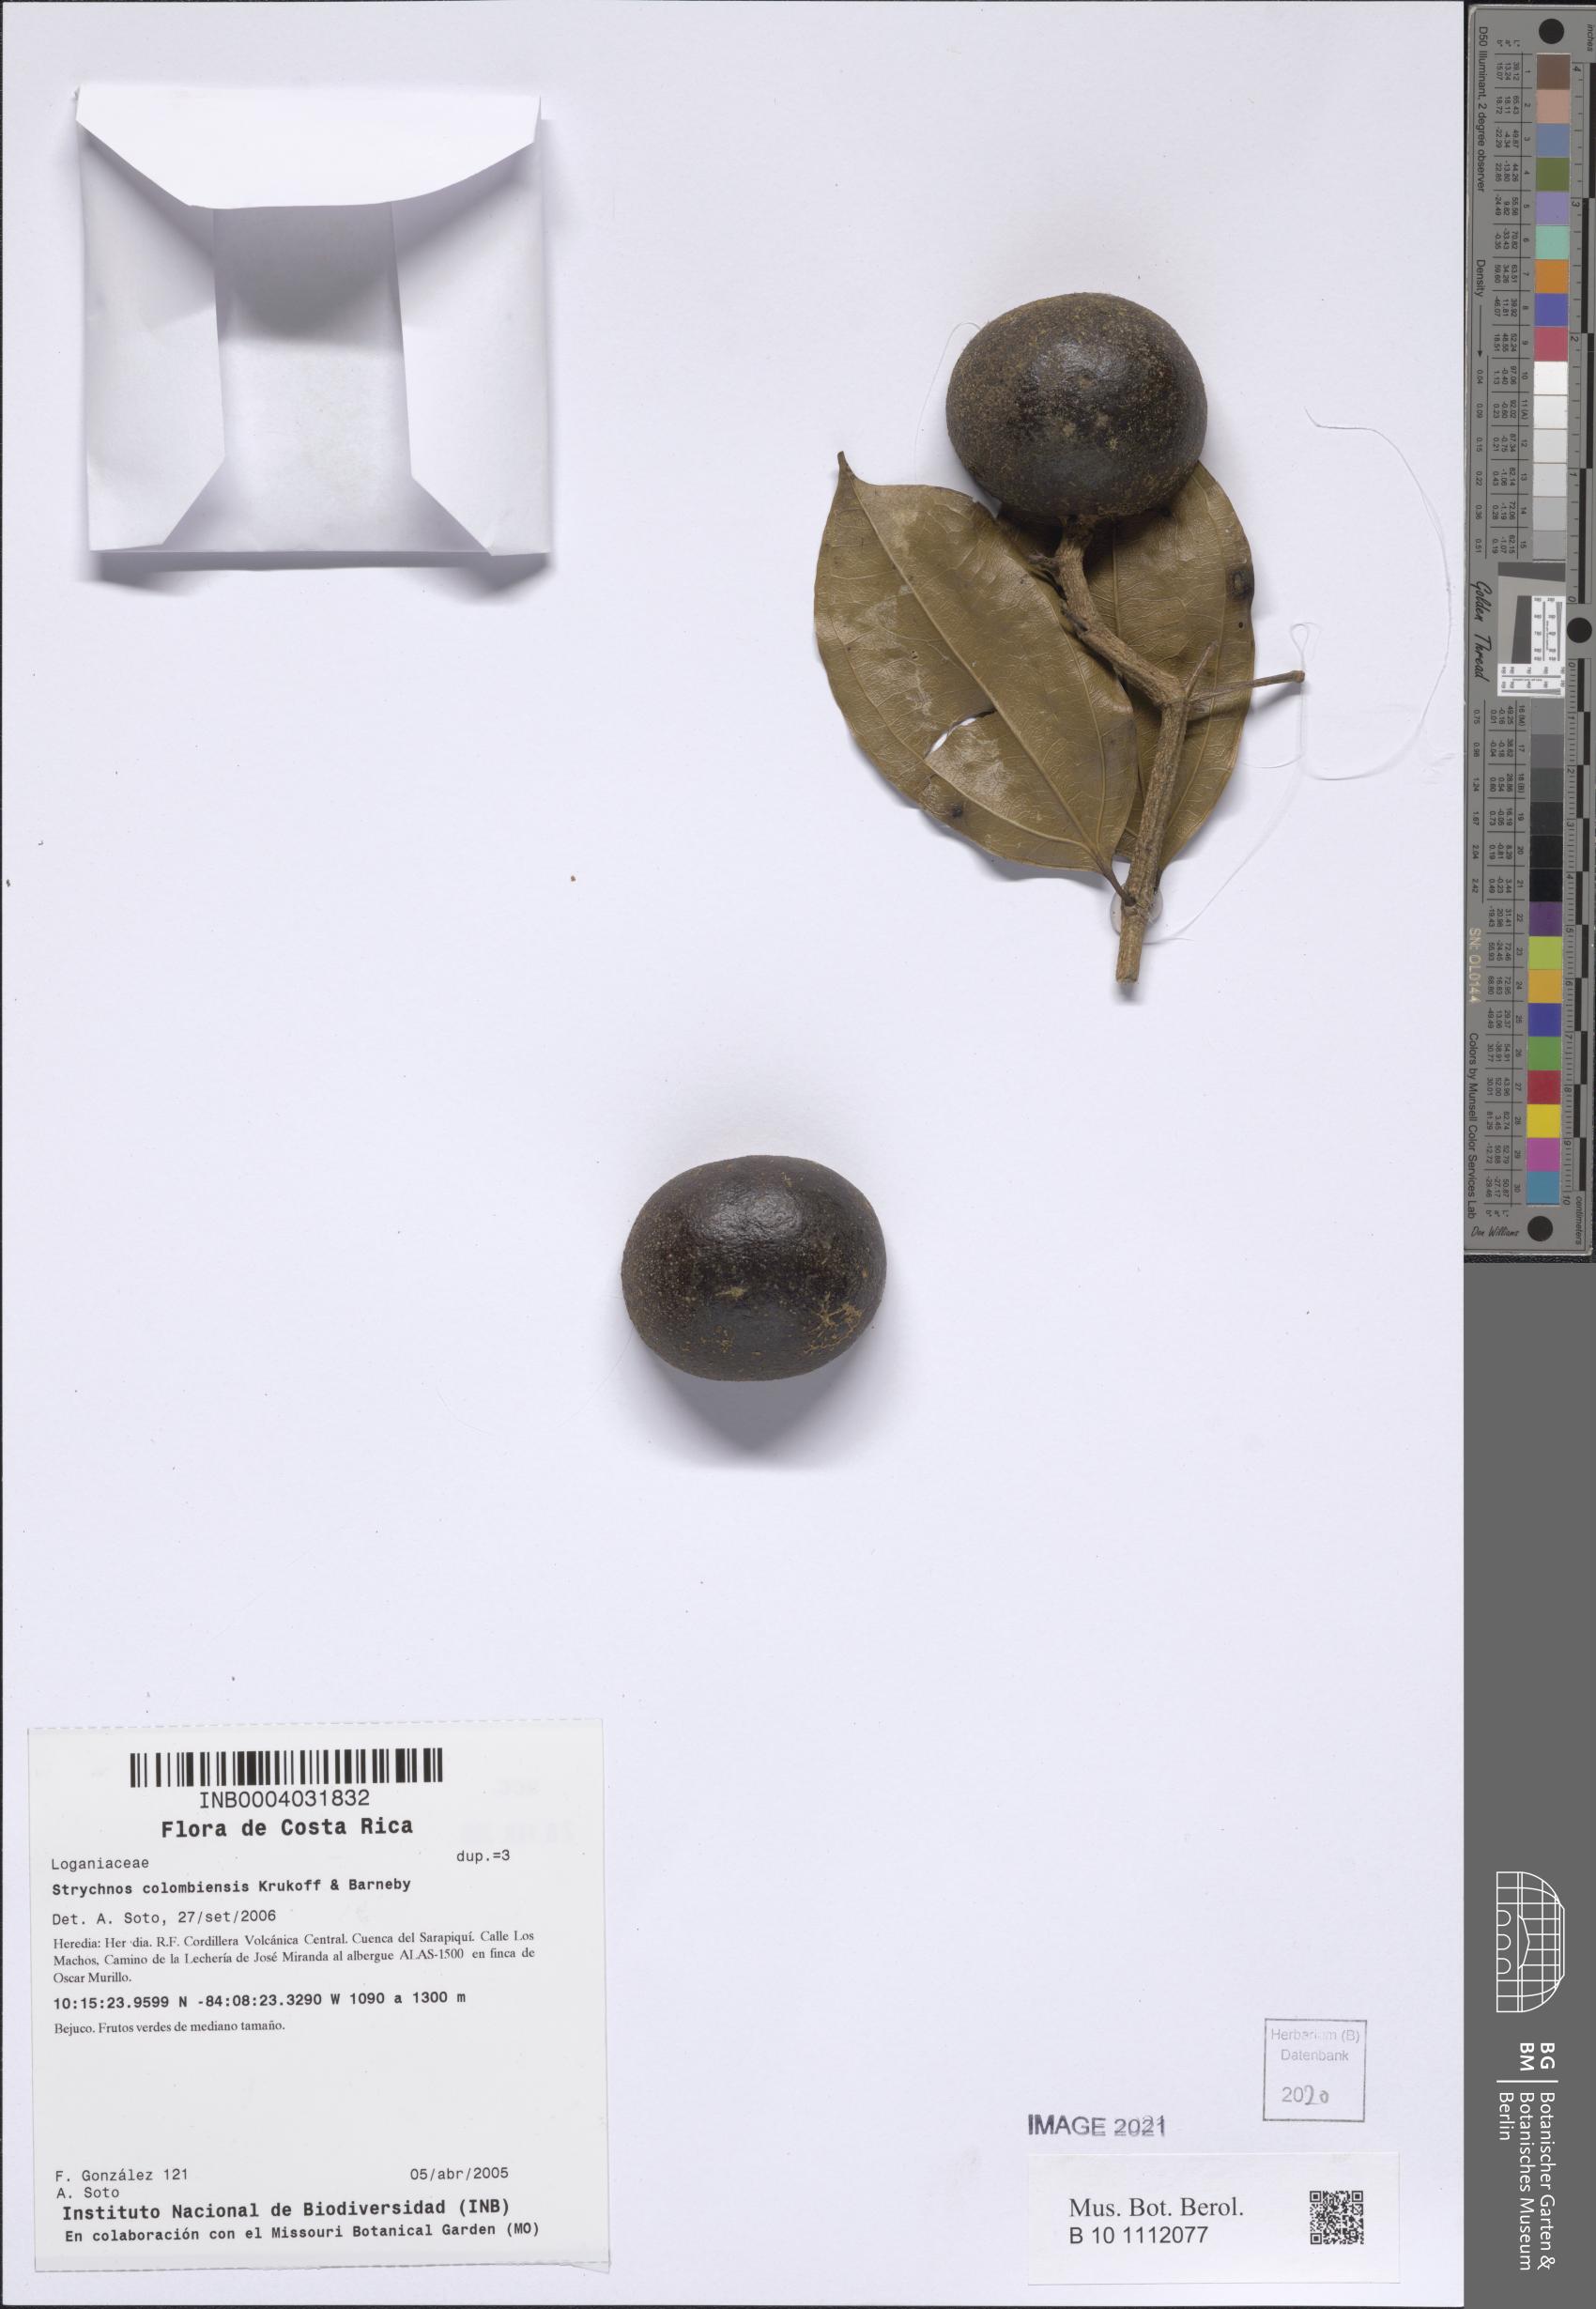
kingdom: Plantae
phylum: Tracheophyta
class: Magnoliopsida
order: Gentianales
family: Loganiaceae
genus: Strychnos
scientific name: Strychnos colombiensis
